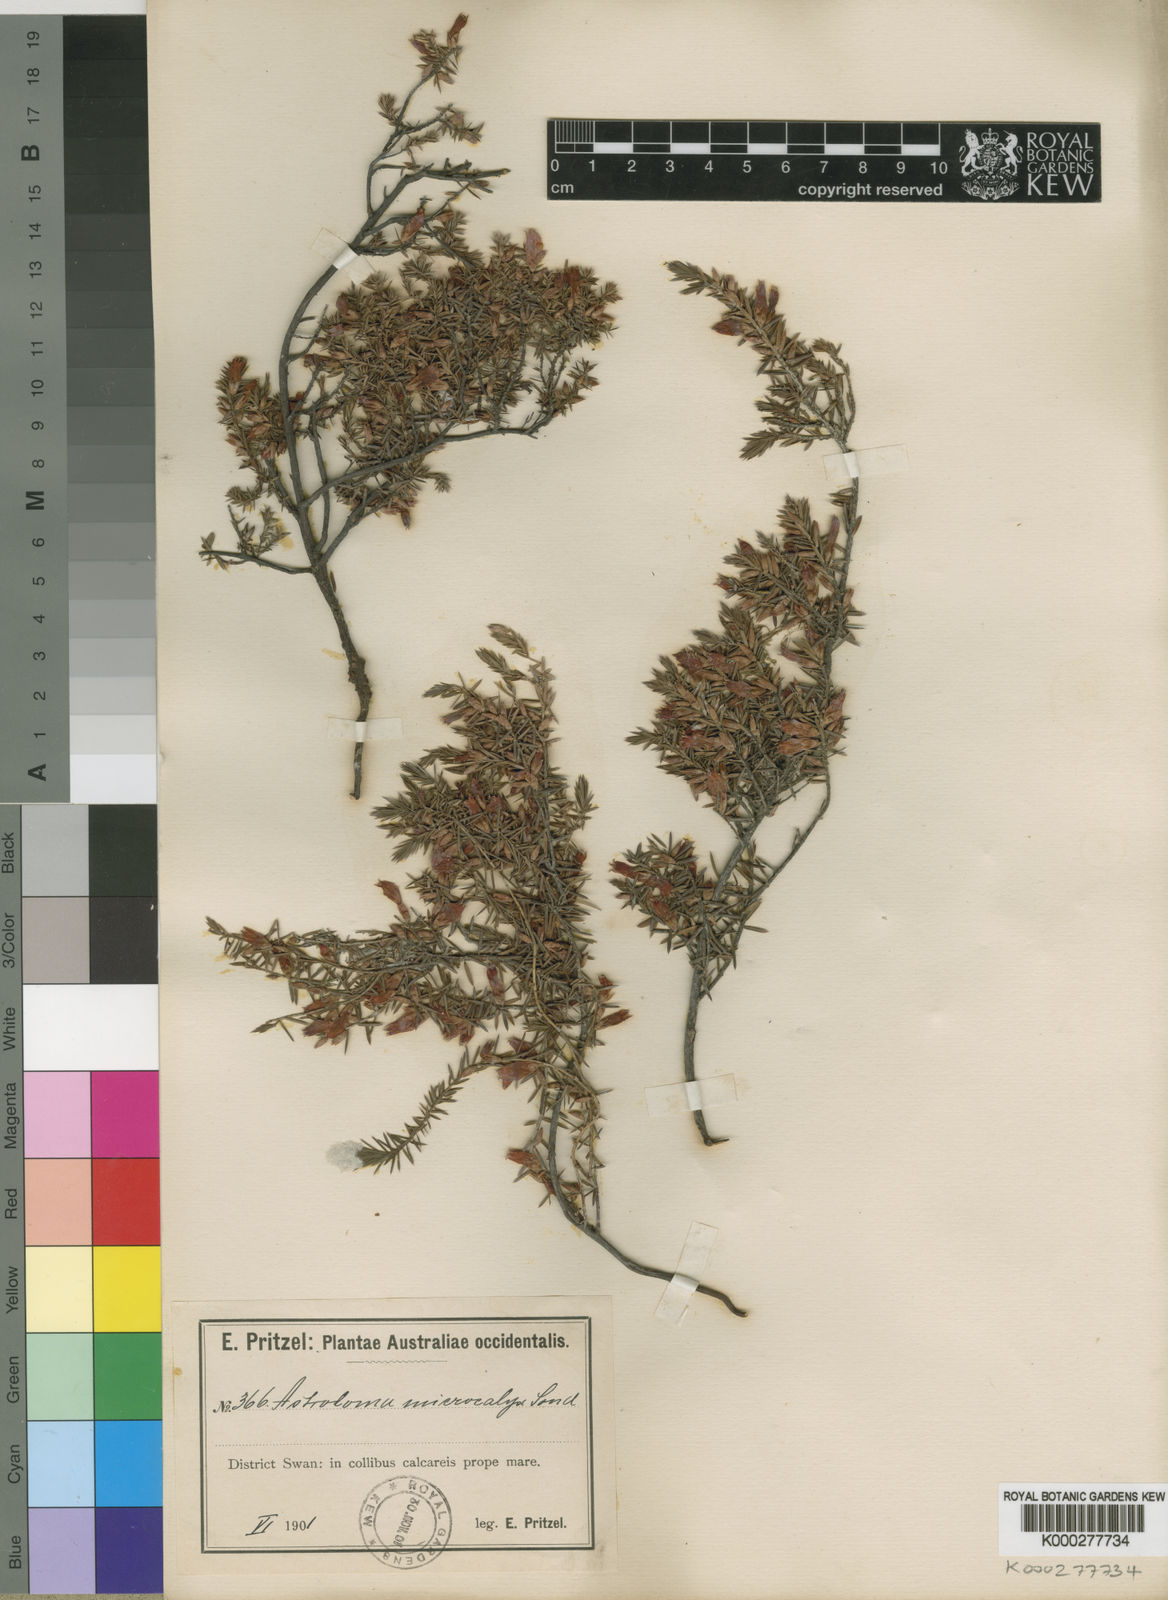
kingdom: Plantae
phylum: Tracheophyta
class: Magnoliopsida
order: Ericales
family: Ericaceae
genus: Styphelia
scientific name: Styphelia microcalyx
